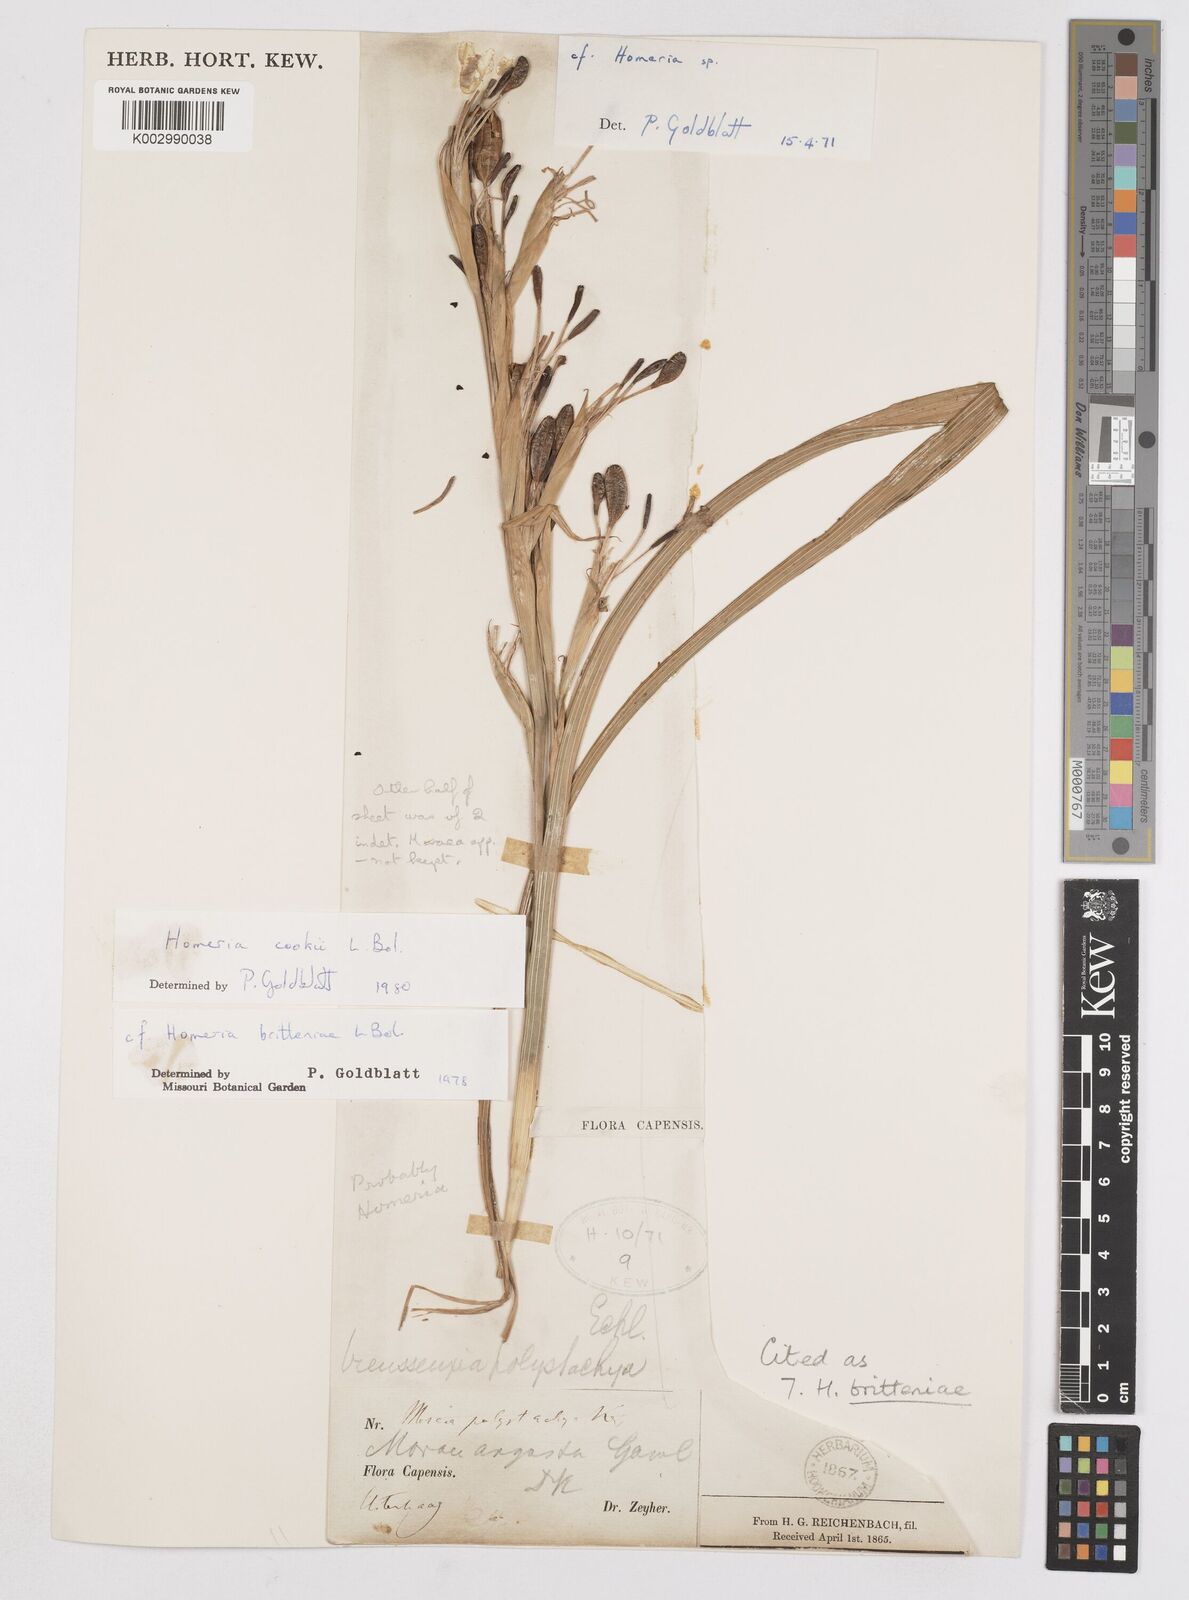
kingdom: Plantae
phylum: Tracheophyta
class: Liliopsida
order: Asparagales
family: Iridaceae
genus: Moraea
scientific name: Moraea britteniae
